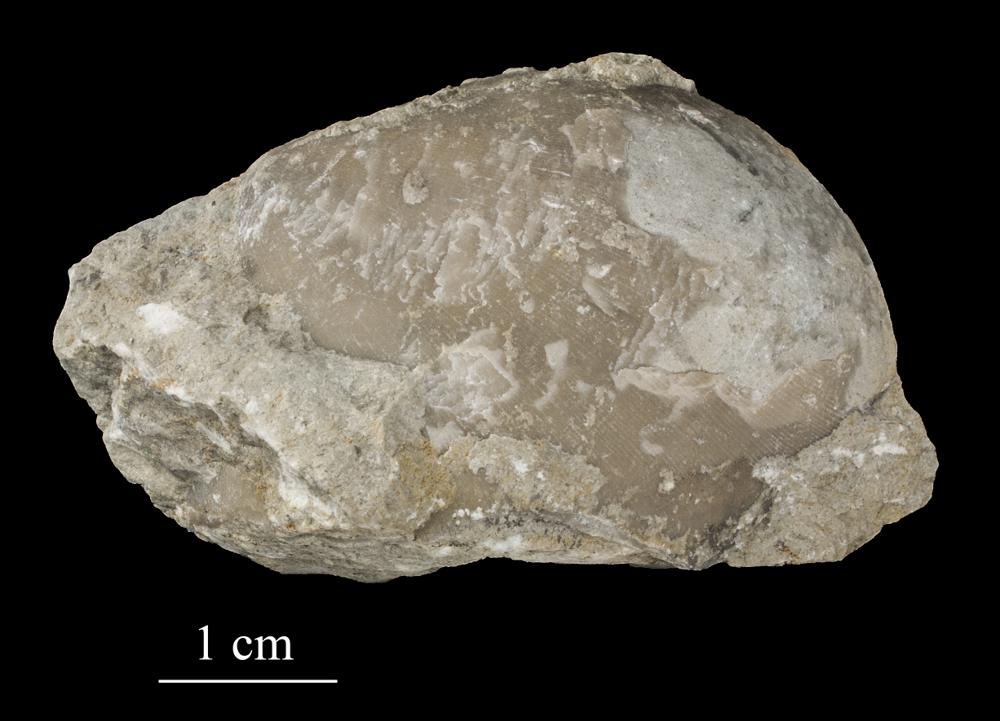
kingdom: Animalia
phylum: Brachiopoda
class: Rhynchonellata
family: Porambonitidae
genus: Porambonites
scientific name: Porambonites
